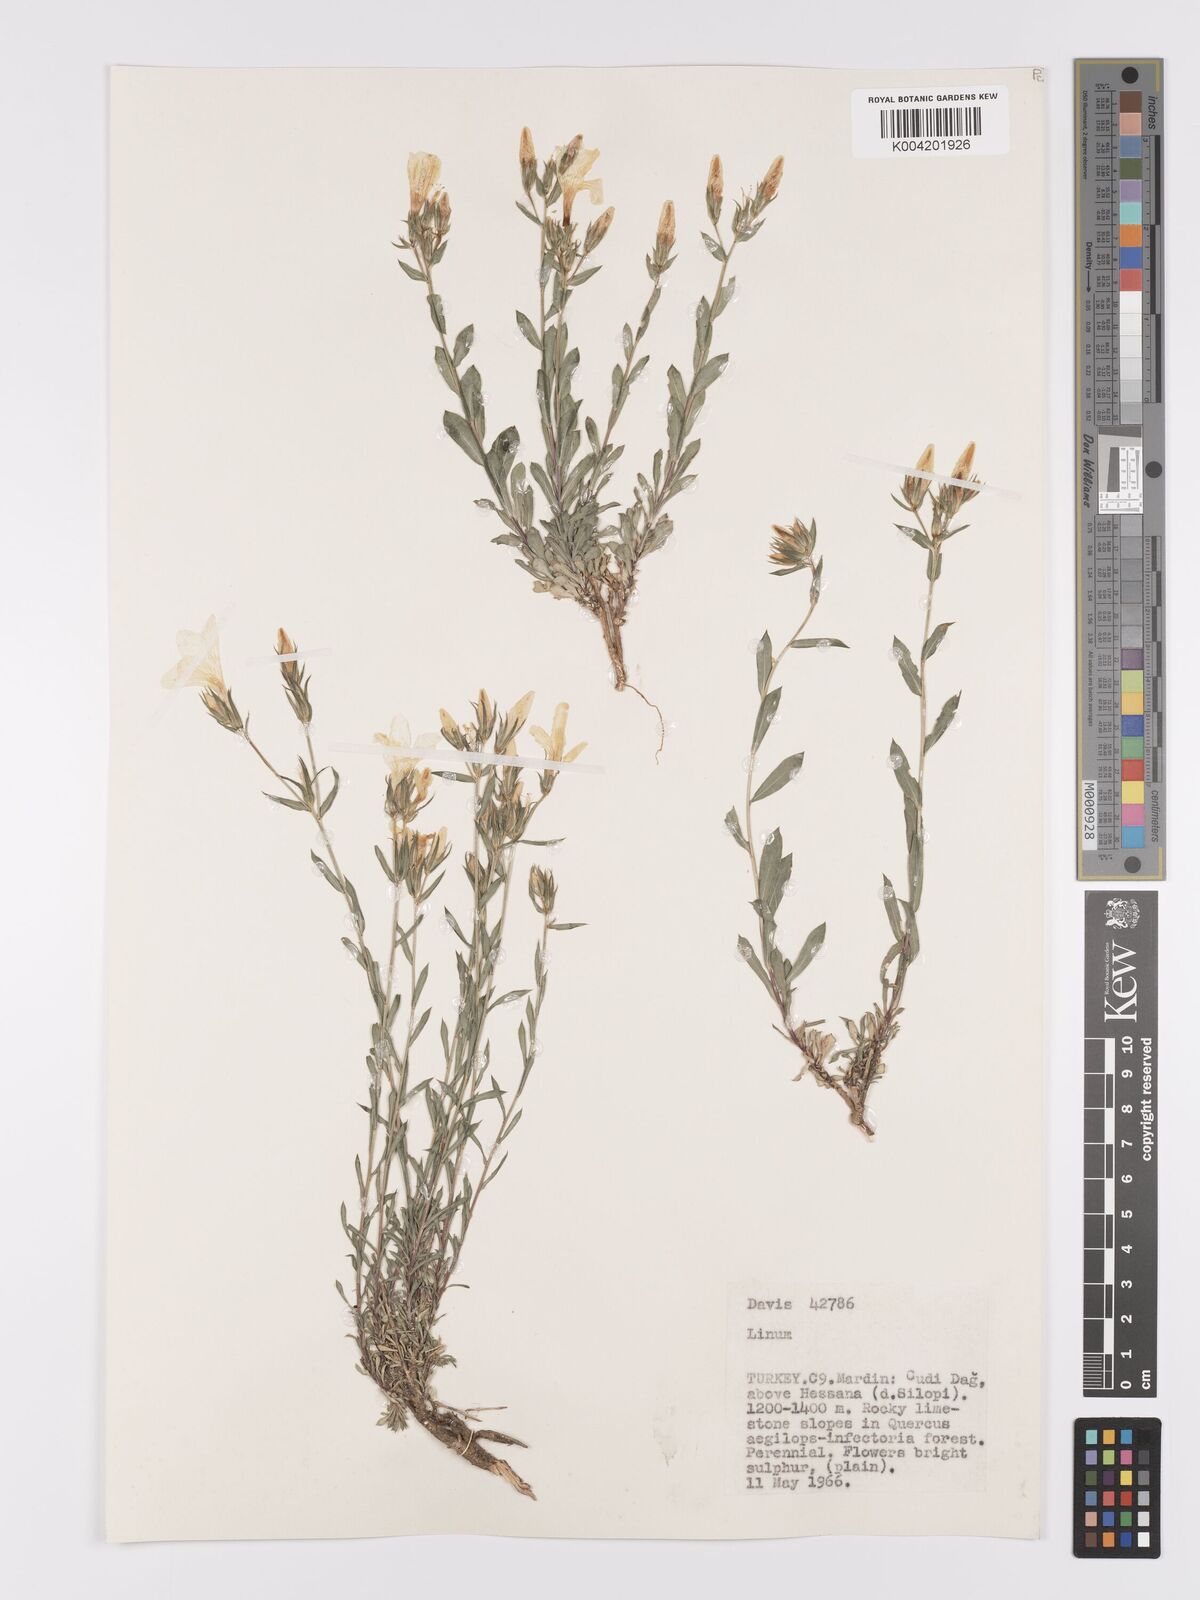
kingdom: Plantae
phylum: Tracheophyta
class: Magnoliopsida
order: Malpighiales
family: Linaceae
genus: Linum
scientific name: Linum
